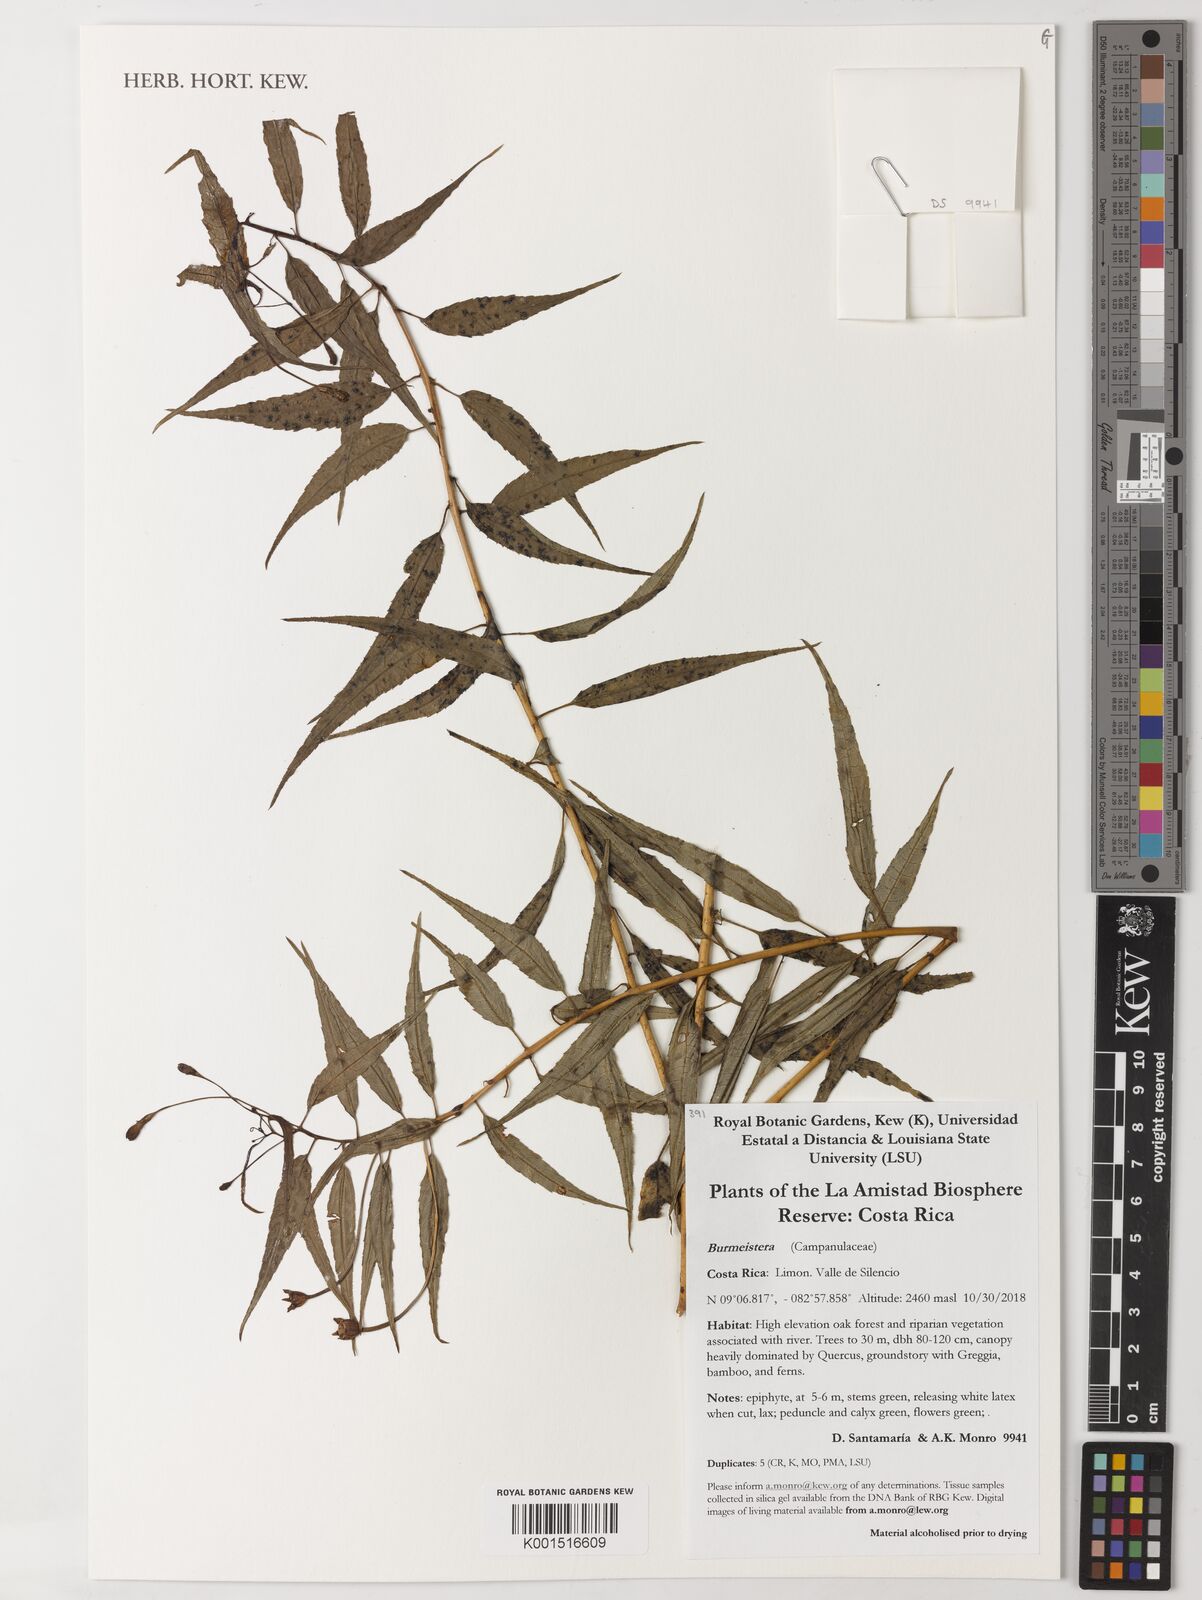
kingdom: Plantae
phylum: Tracheophyta
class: Magnoliopsida
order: Asterales
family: Campanulaceae
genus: Burmeistera
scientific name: Burmeistera
